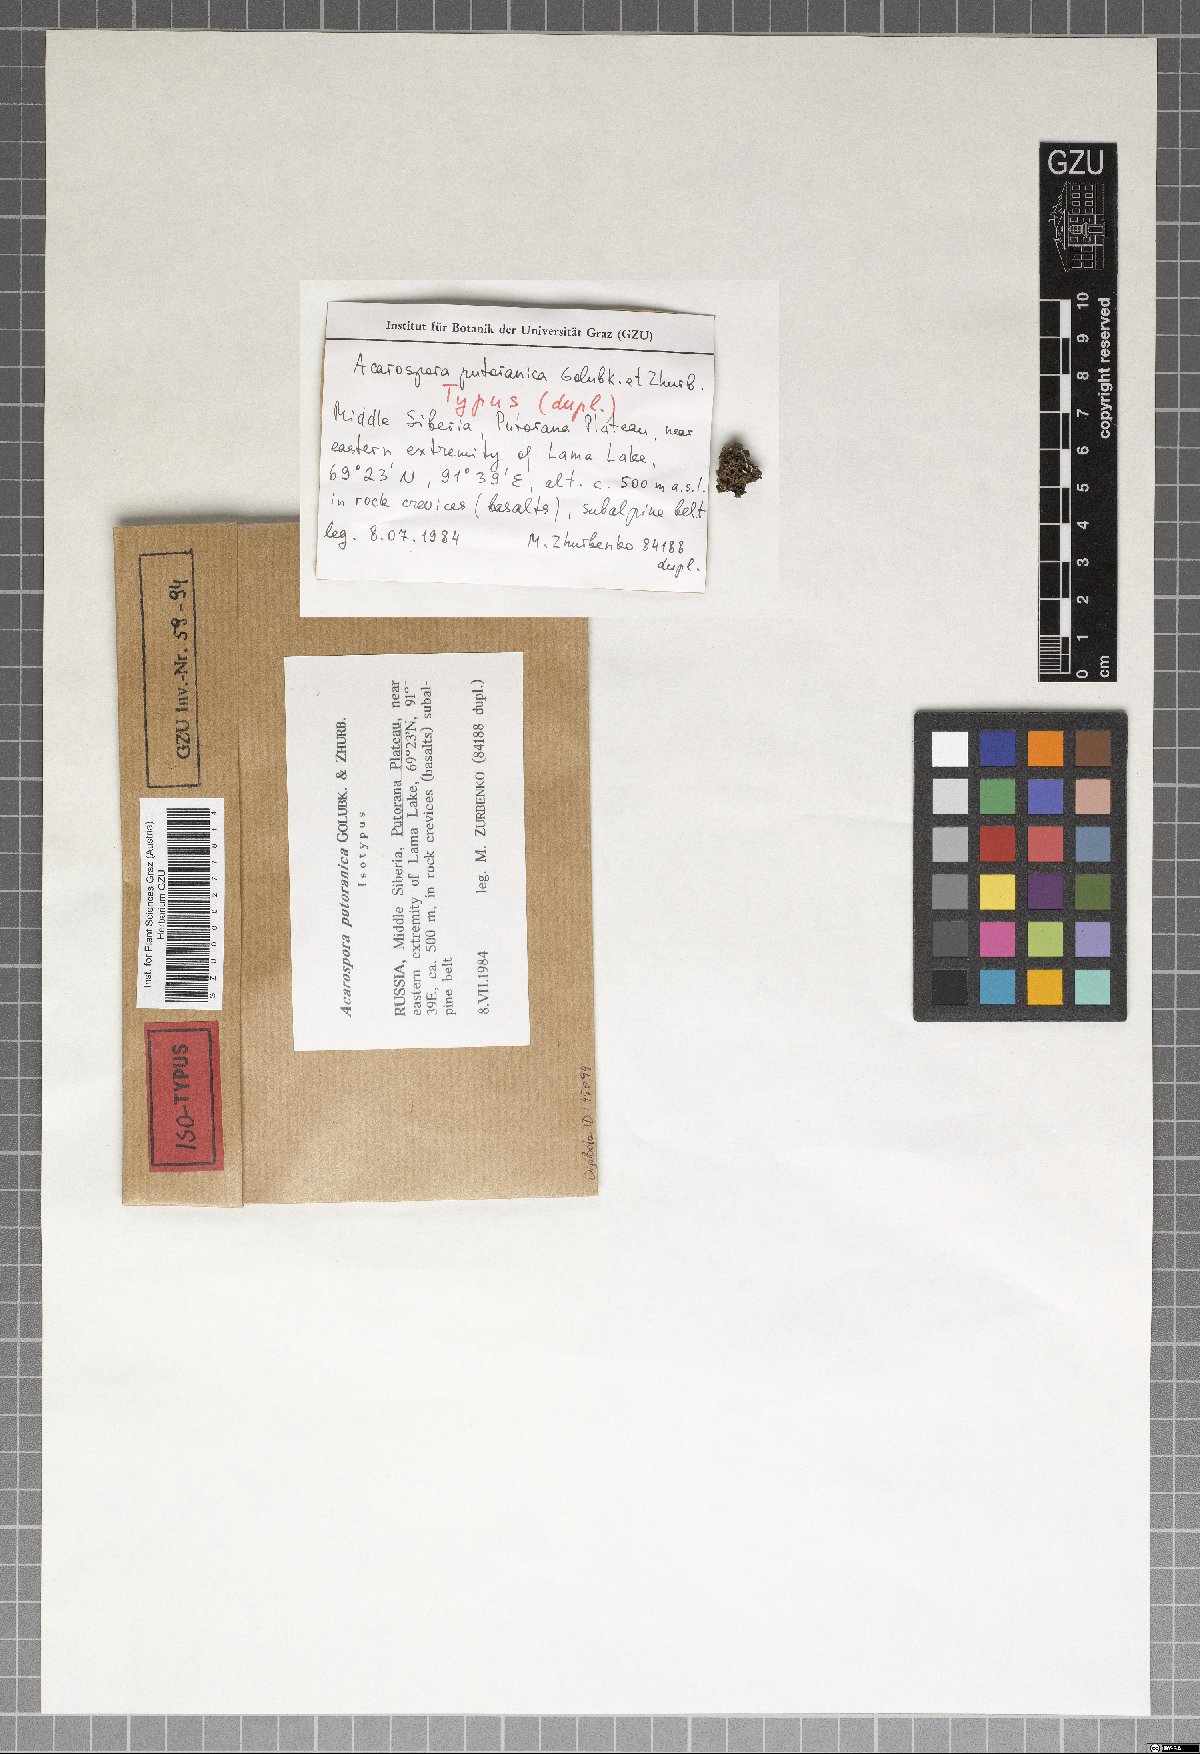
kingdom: Fungi
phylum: Ascomycota
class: Lecanoromycetes
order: Acarosporales
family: Acarosporaceae
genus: Acarospora
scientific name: Acarospora putoranica
